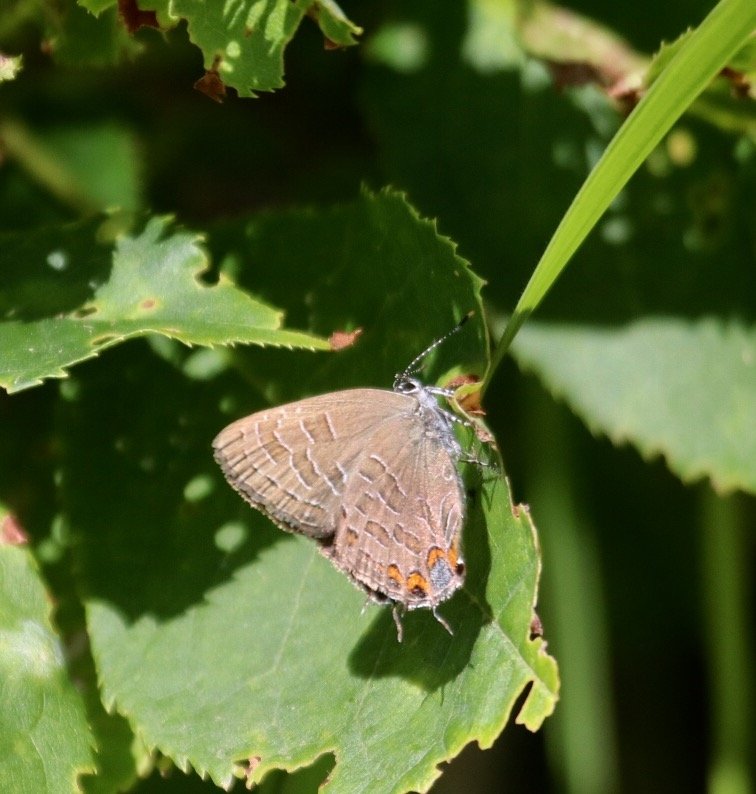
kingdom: Animalia
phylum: Arthropoda
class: Insecta
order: Lepidoptera
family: Lycaenidae
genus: Satyrium
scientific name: Satyrium liparops
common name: Striped Hairstreak
